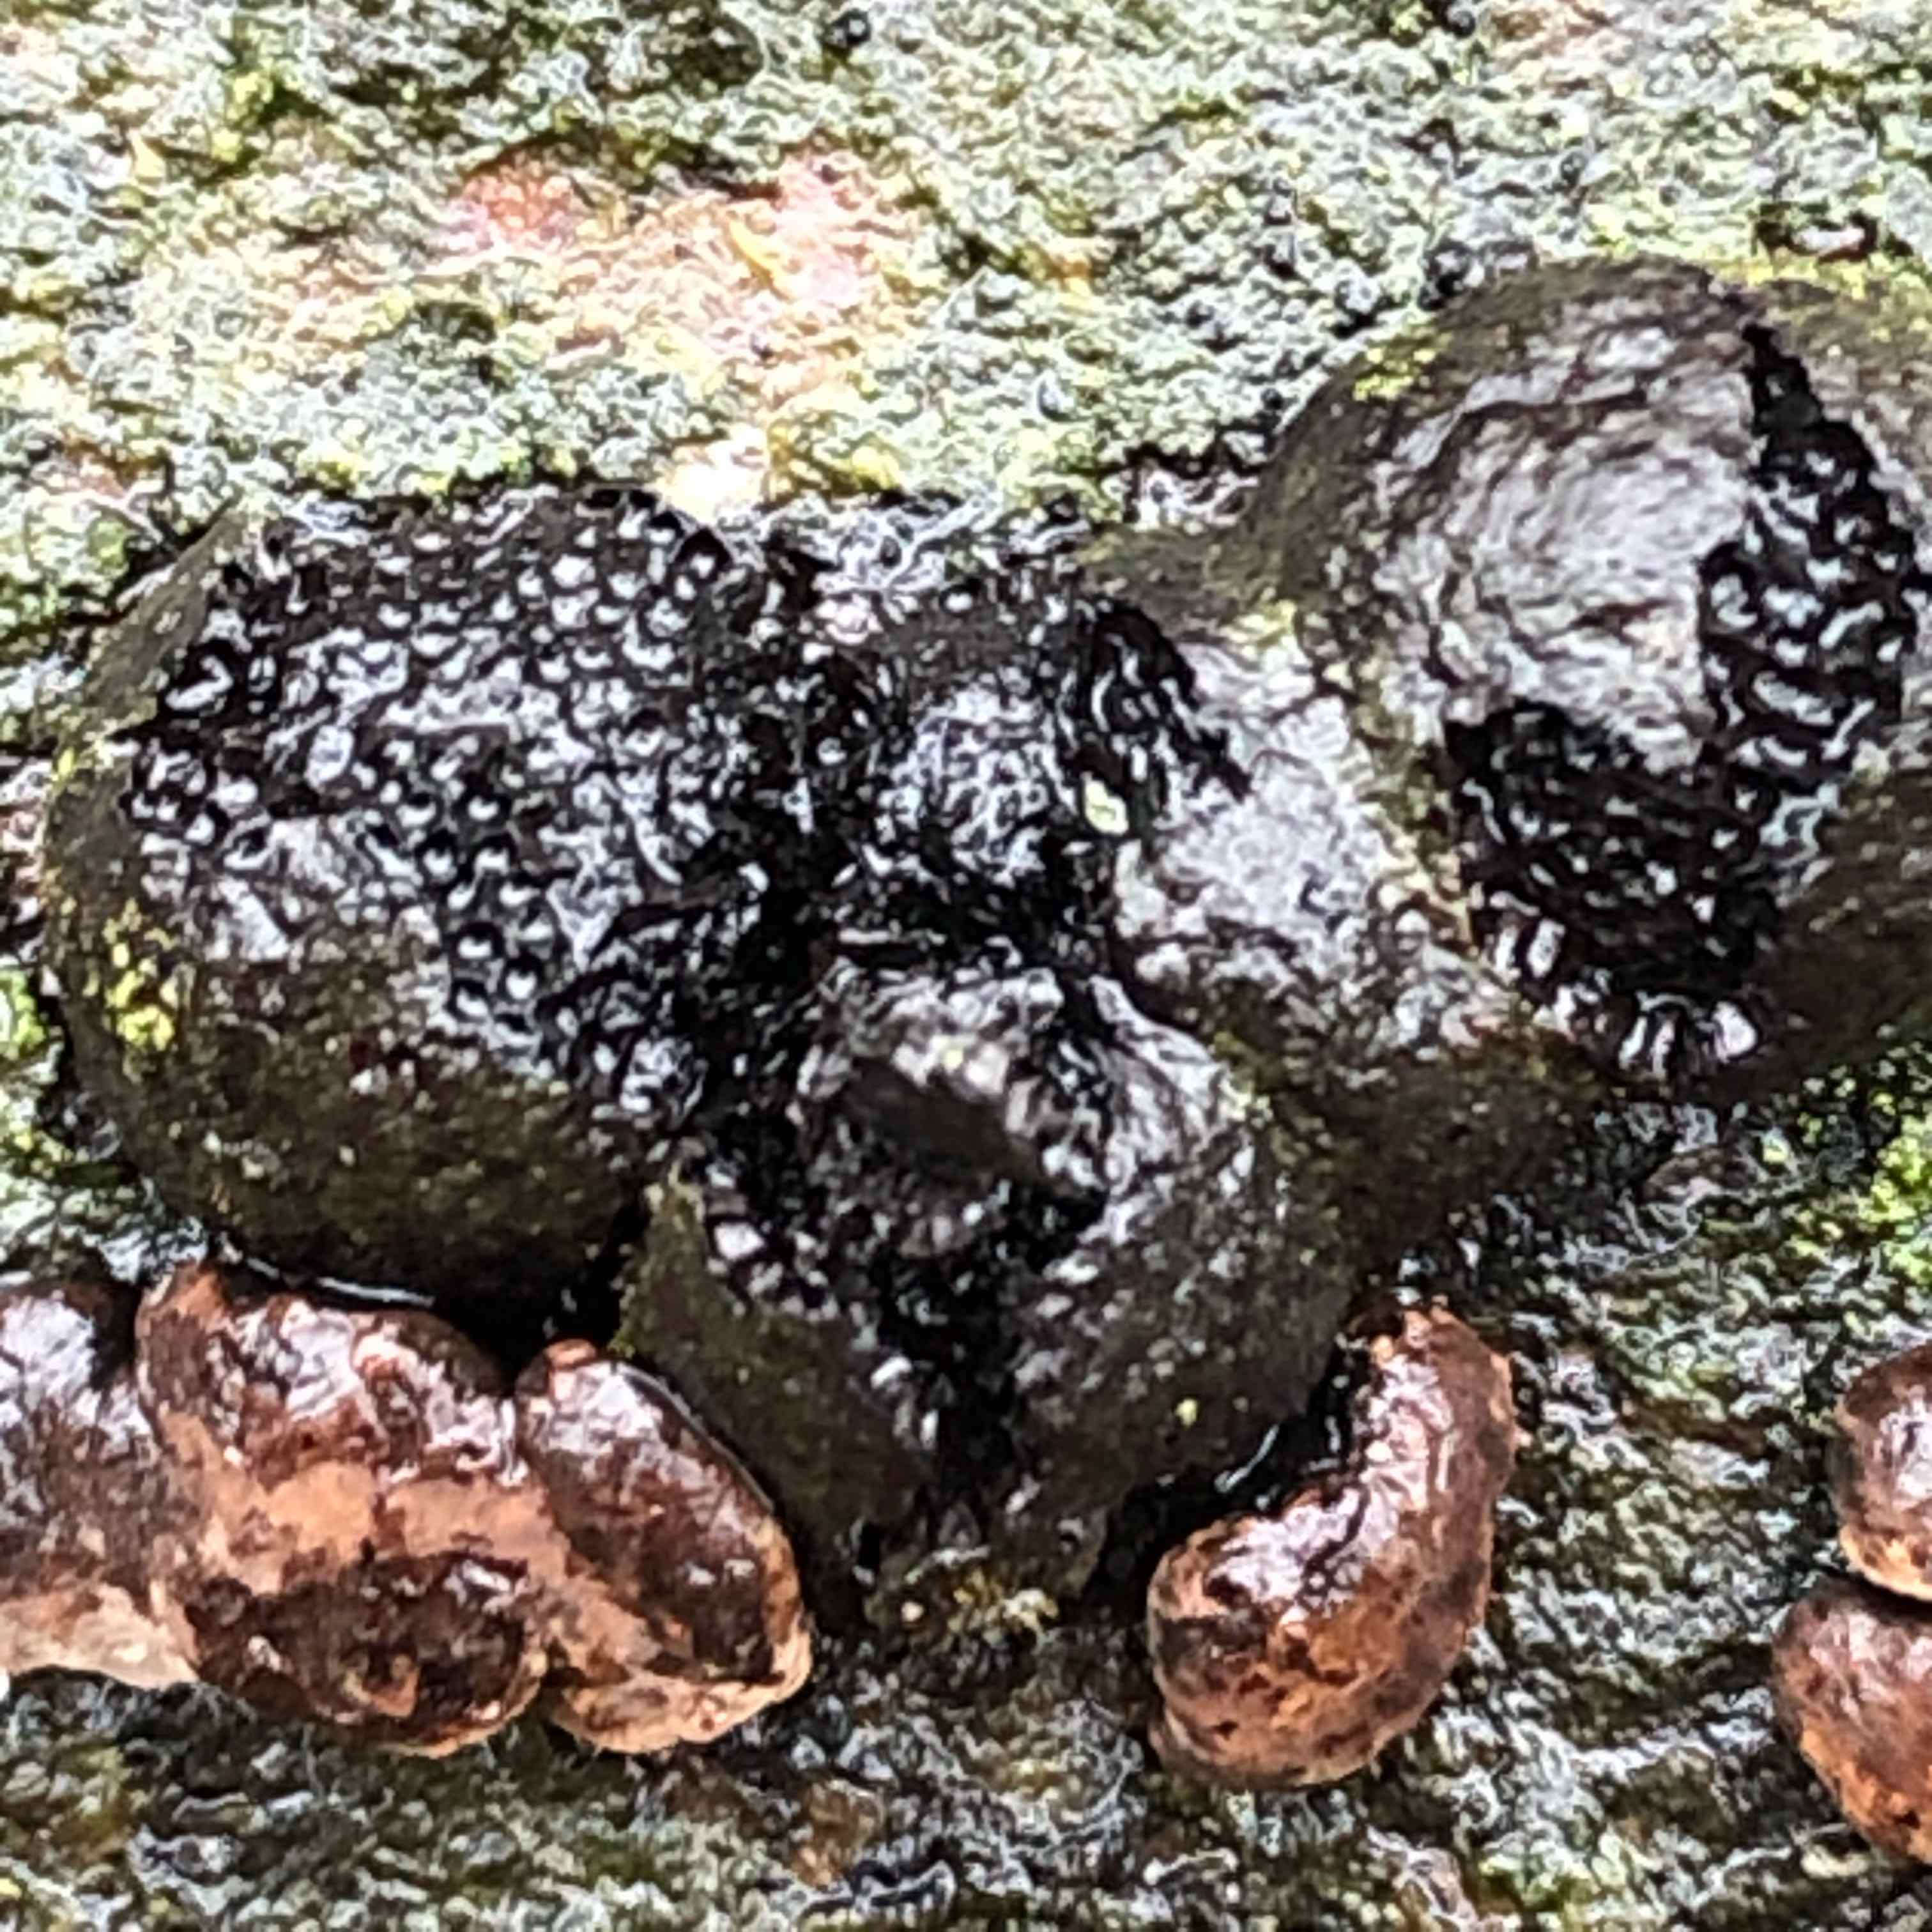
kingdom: Fungi
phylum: Ascomycota
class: Sordariomycetes
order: Xylariales
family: Hypoxylaceae
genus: Hypoxylon
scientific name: Hypoxylon fragiforme
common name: kuljordbær
